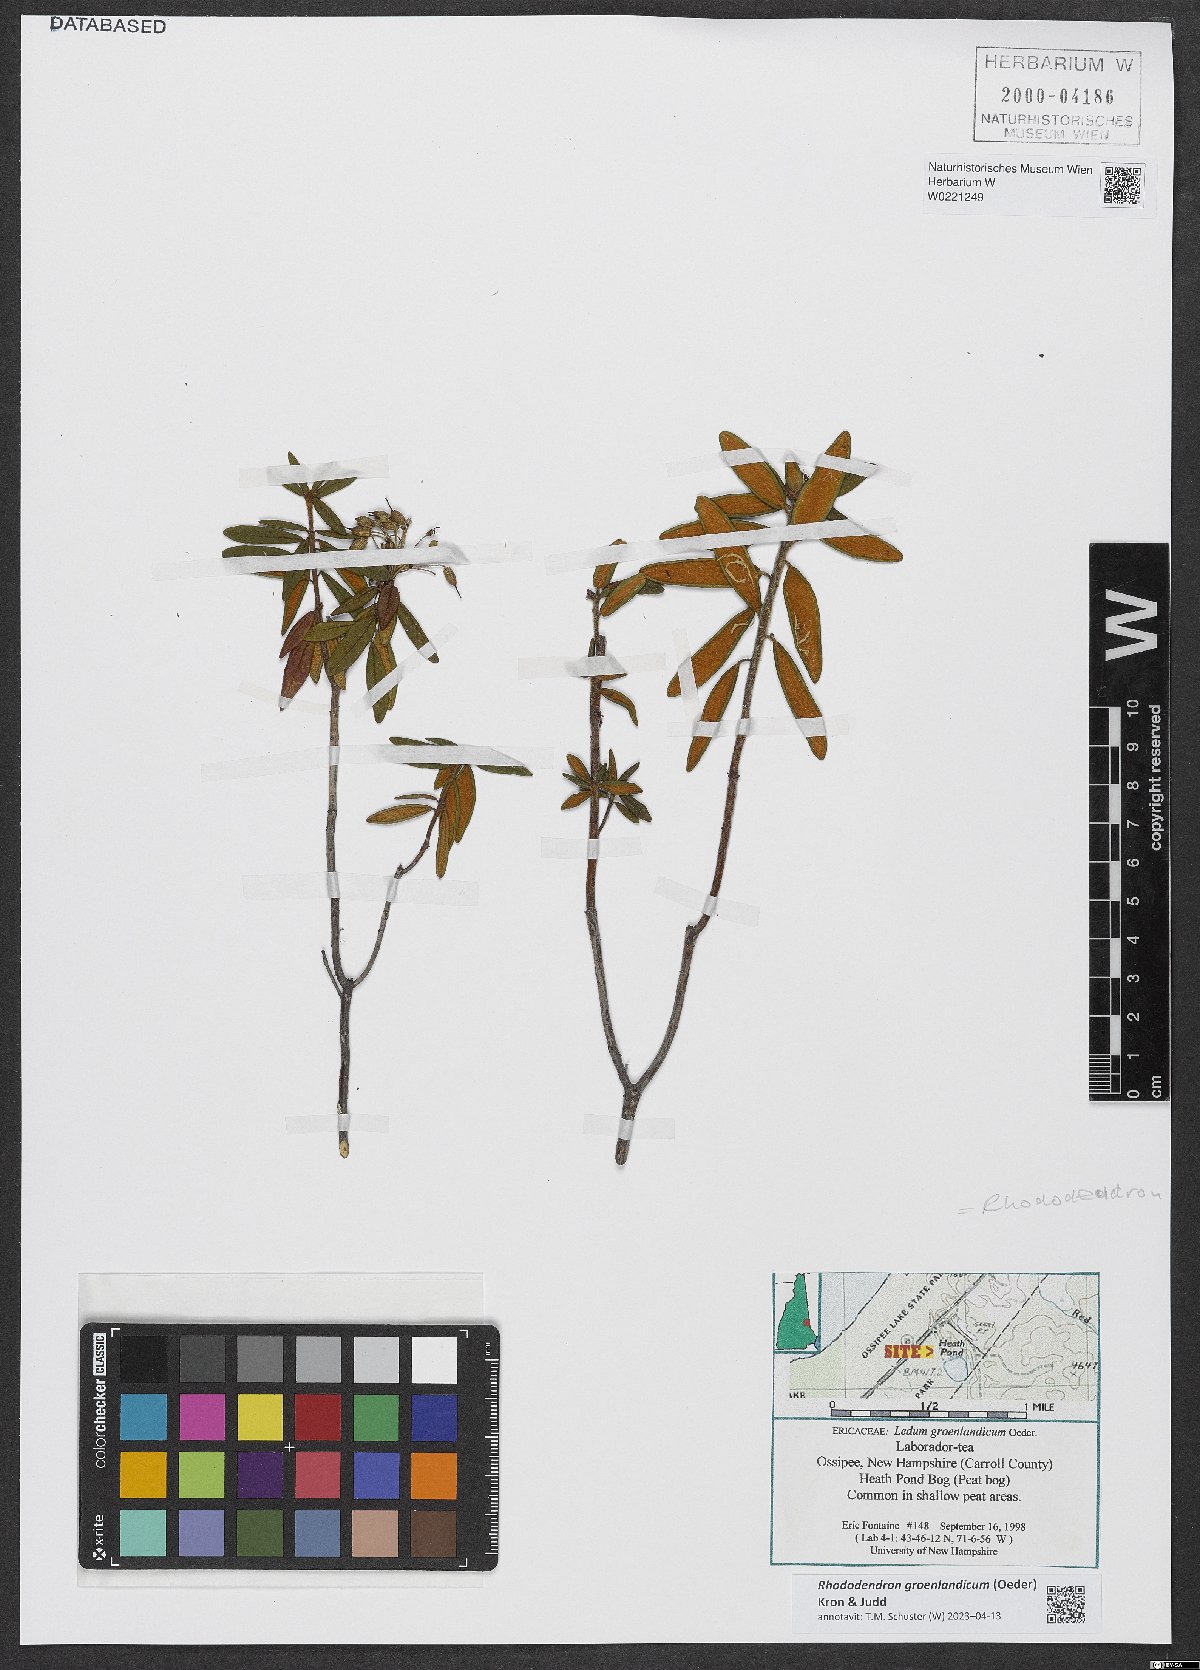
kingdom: Plantae
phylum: Tracheophyta
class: Magnoliopsida
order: Ericales
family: Ericaceae
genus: Rhododendron
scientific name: Rhododendron groenlandicum
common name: Bog labrador tea
